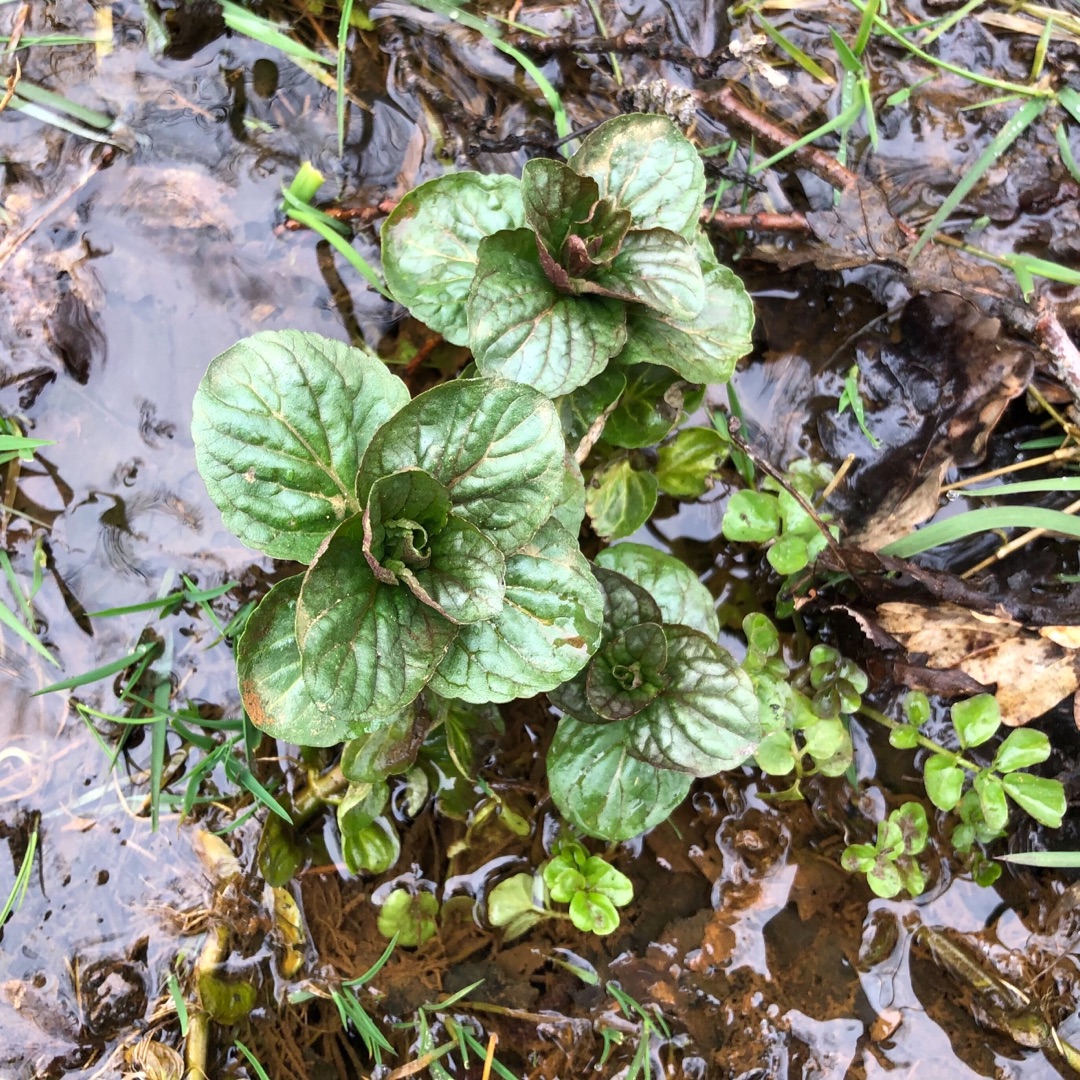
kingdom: Plantae
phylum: Tracheophyta
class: Magnoliopsida
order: Lamiales
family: Lamiaceae
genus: Mentha
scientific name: Mentha aquatica
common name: Vand-mynte
